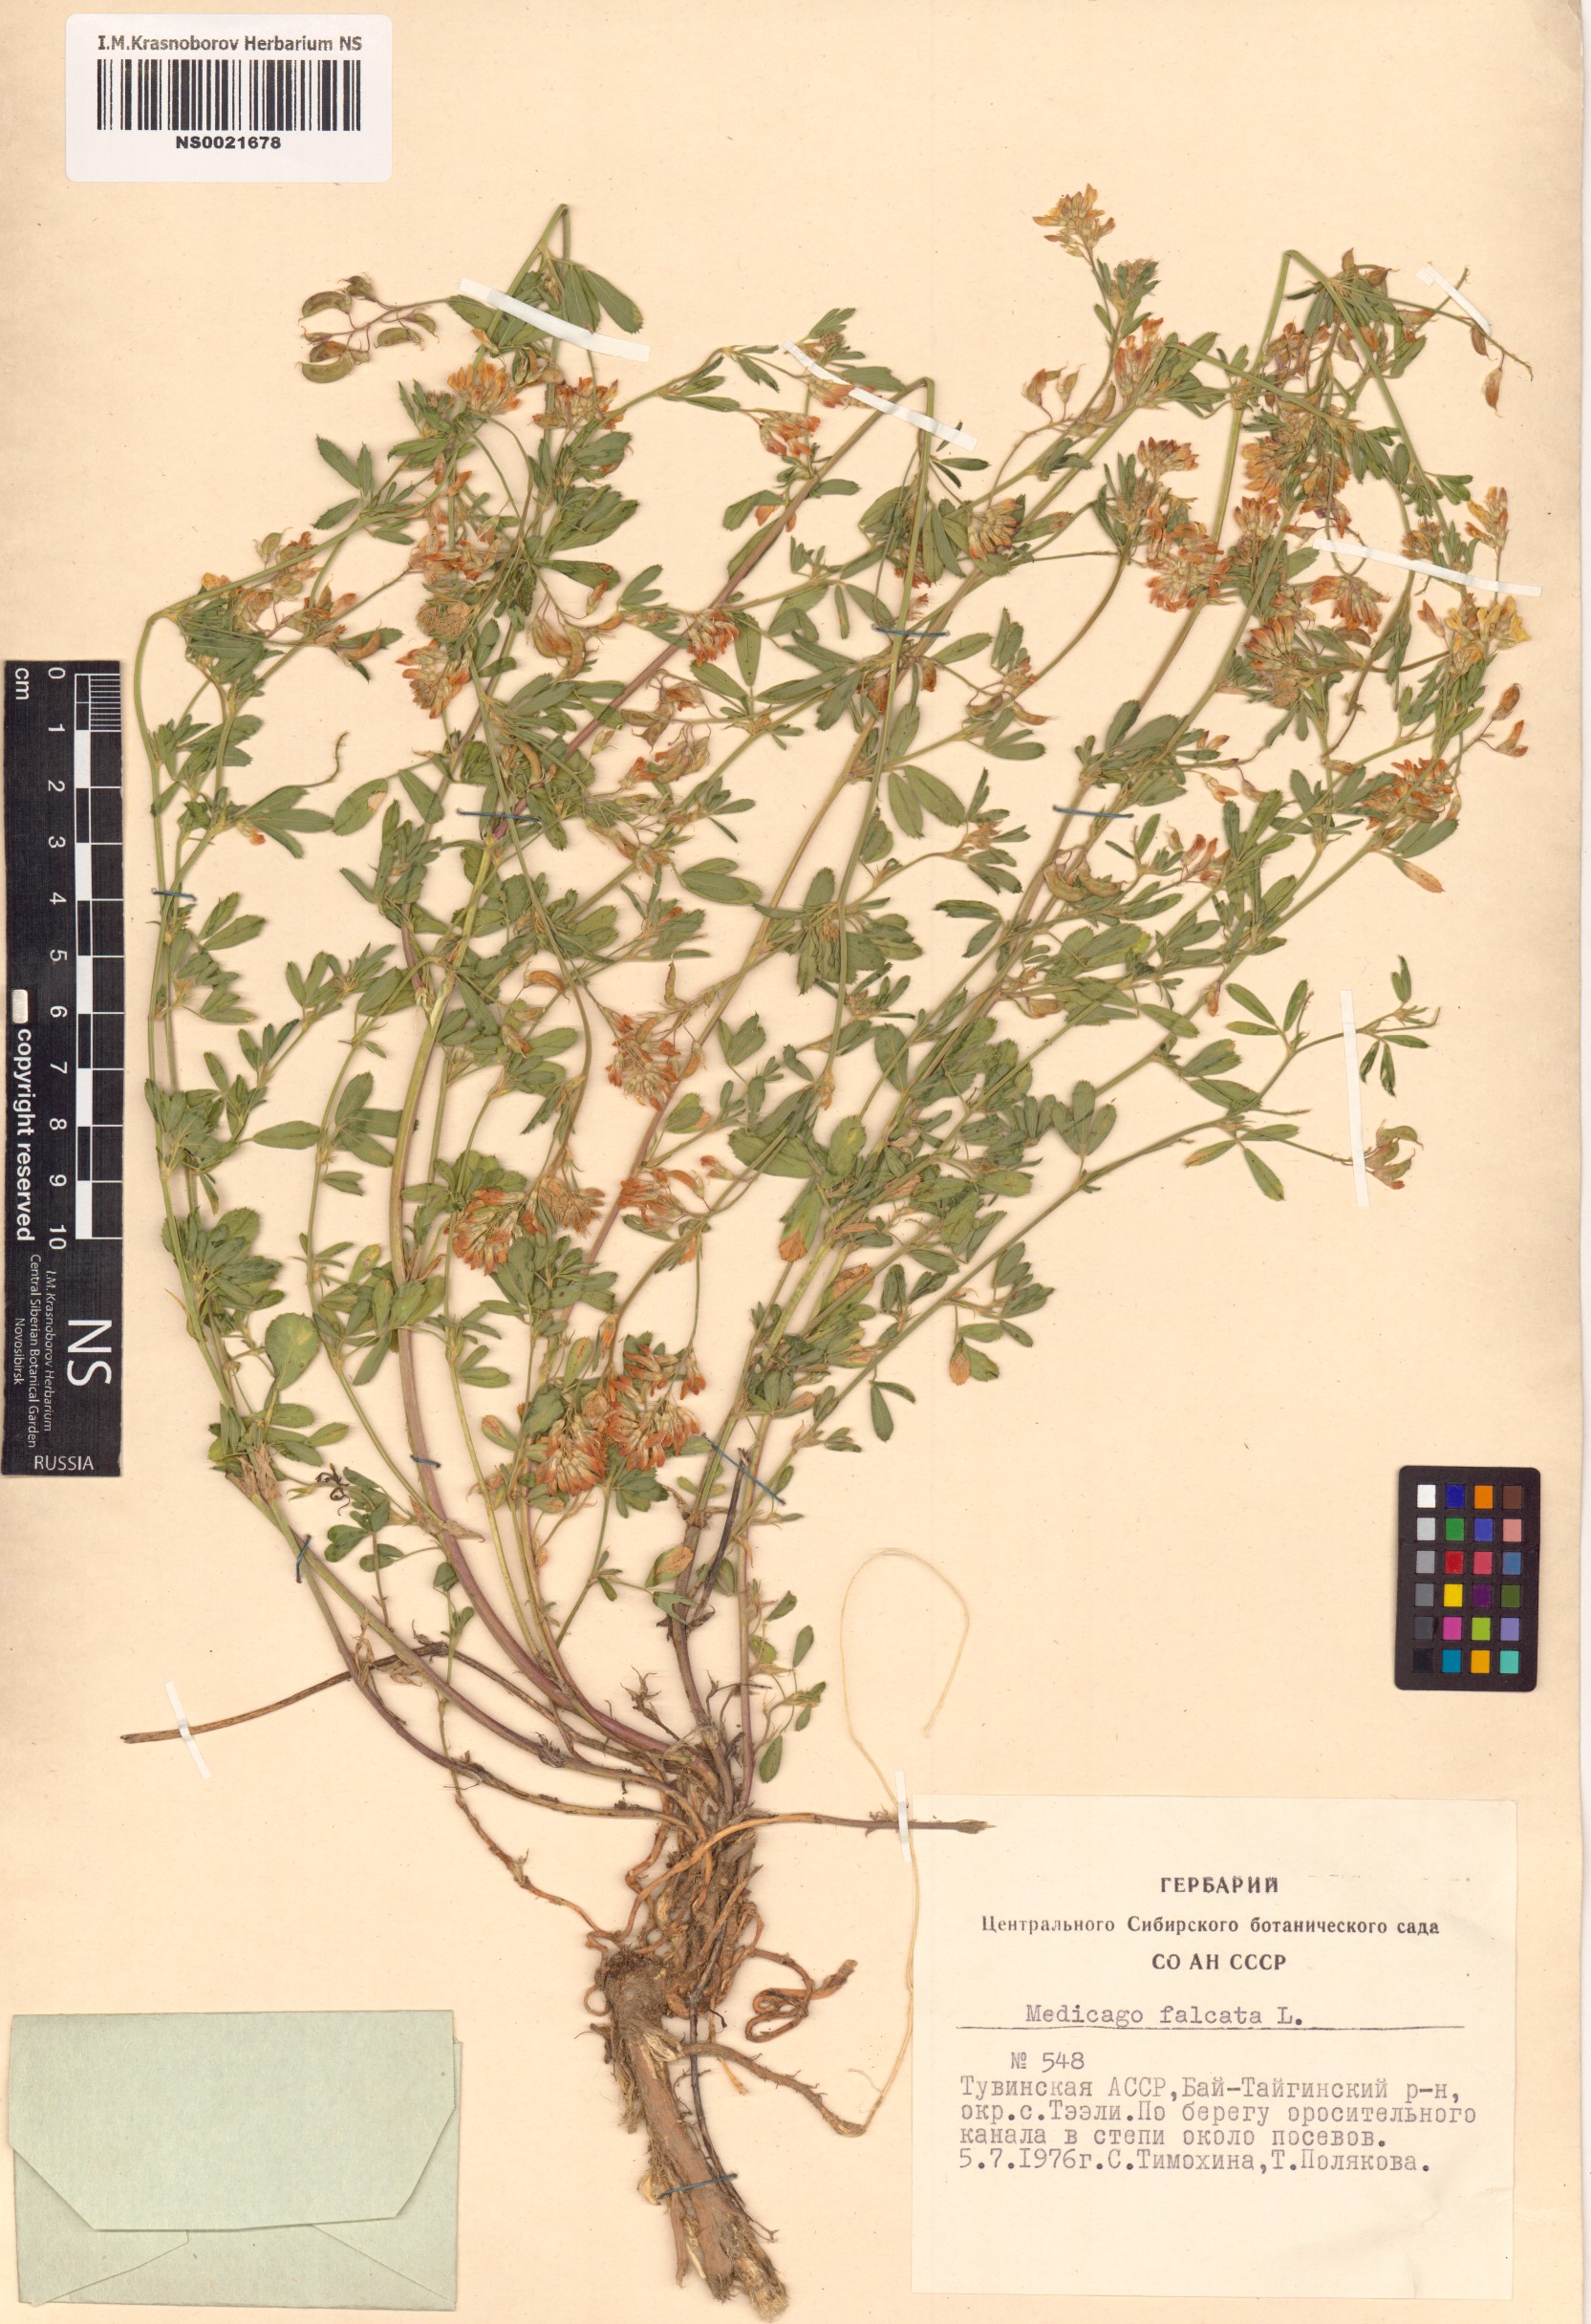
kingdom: Plantae
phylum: Tracheophyta
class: Magnoliopsida
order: Fabales
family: Fabaceae
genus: Medicago
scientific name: Medicago falcata
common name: Sickle medick
